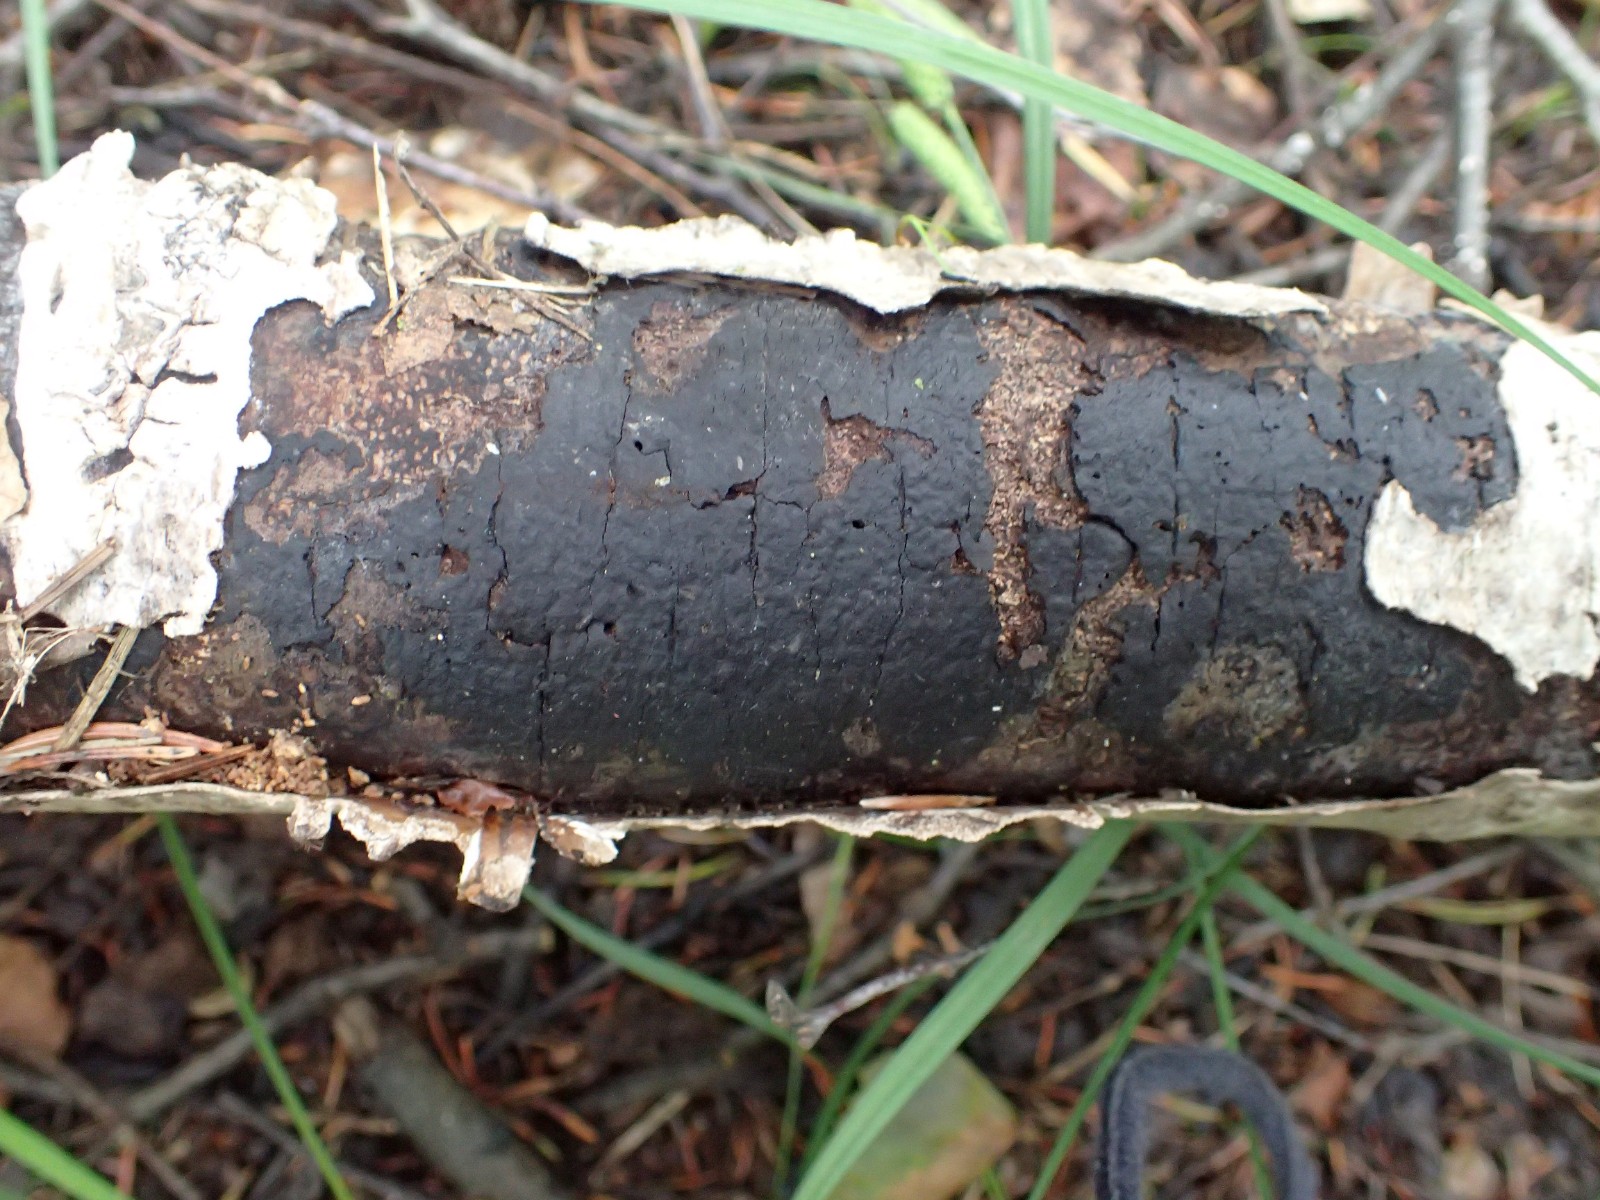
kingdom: Fungi
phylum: Ascomycota
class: Sordariomycetes
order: Xylariales
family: Diatrypaceae
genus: Diatrype
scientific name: Diatrype
